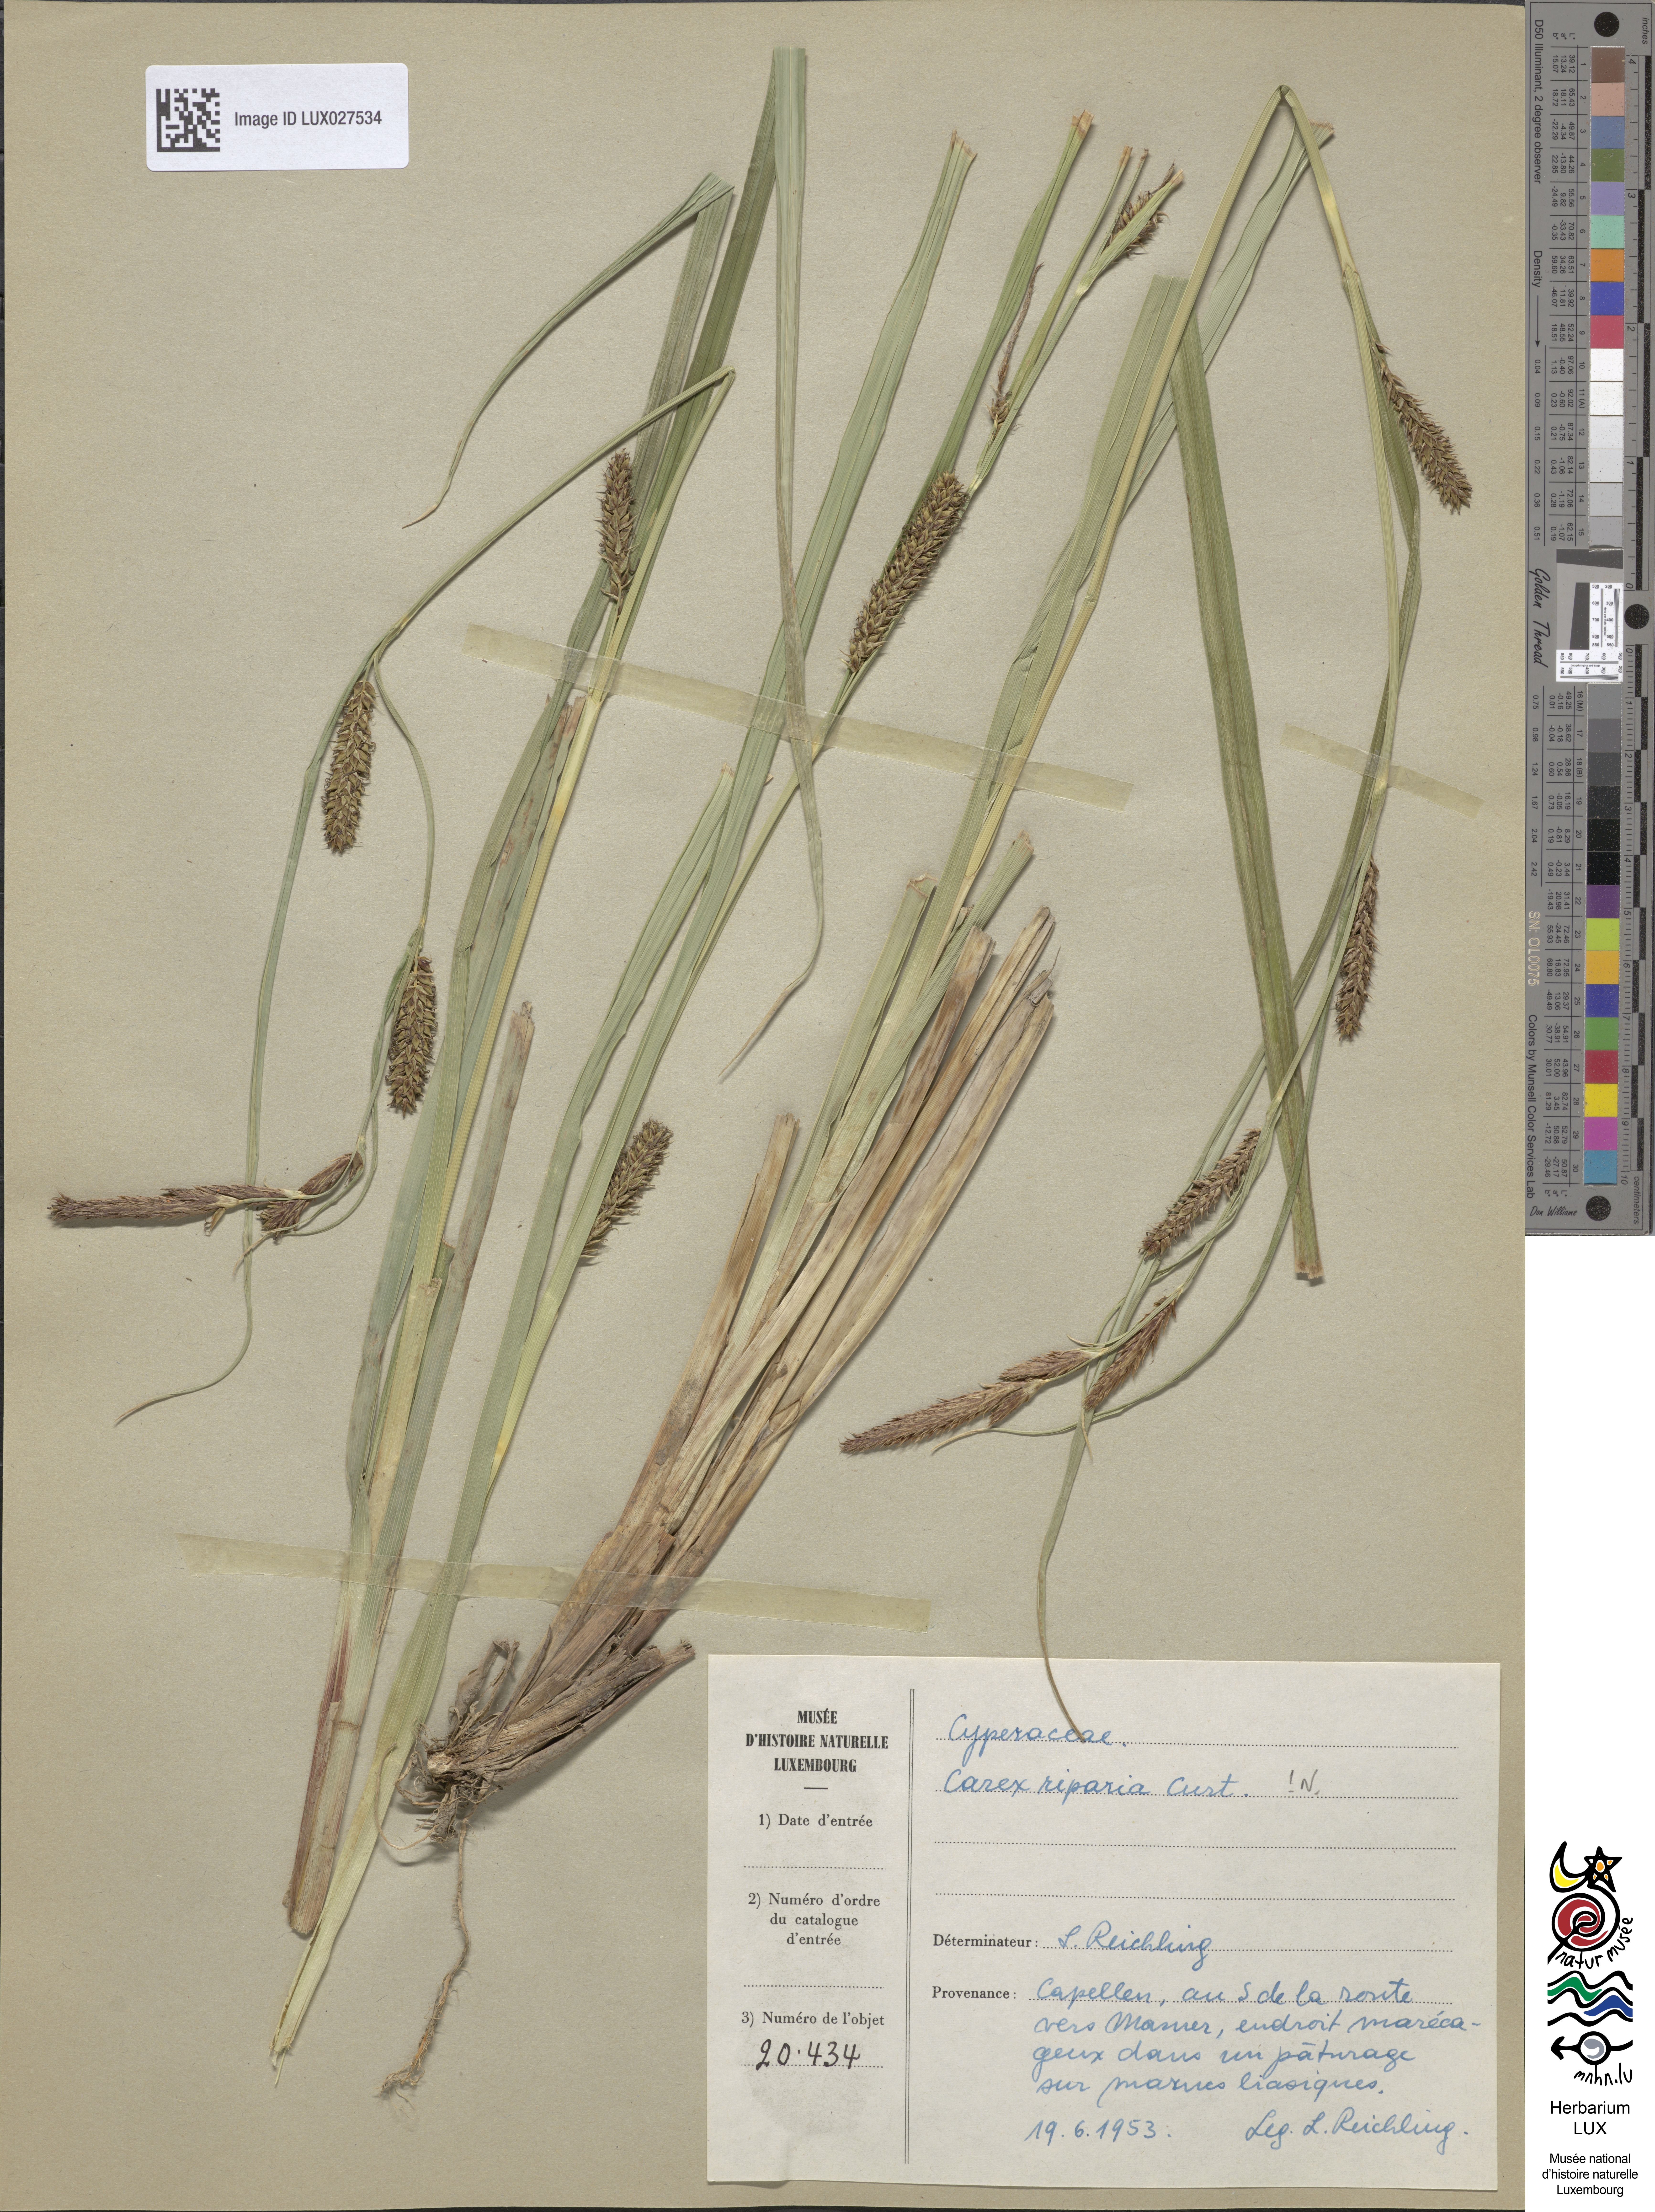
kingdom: Plantae
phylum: Tracheophyta
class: Liliopsida
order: Poales
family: Cyperaceae
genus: Carex
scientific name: Carex riparia
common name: Greater pond-sedge
